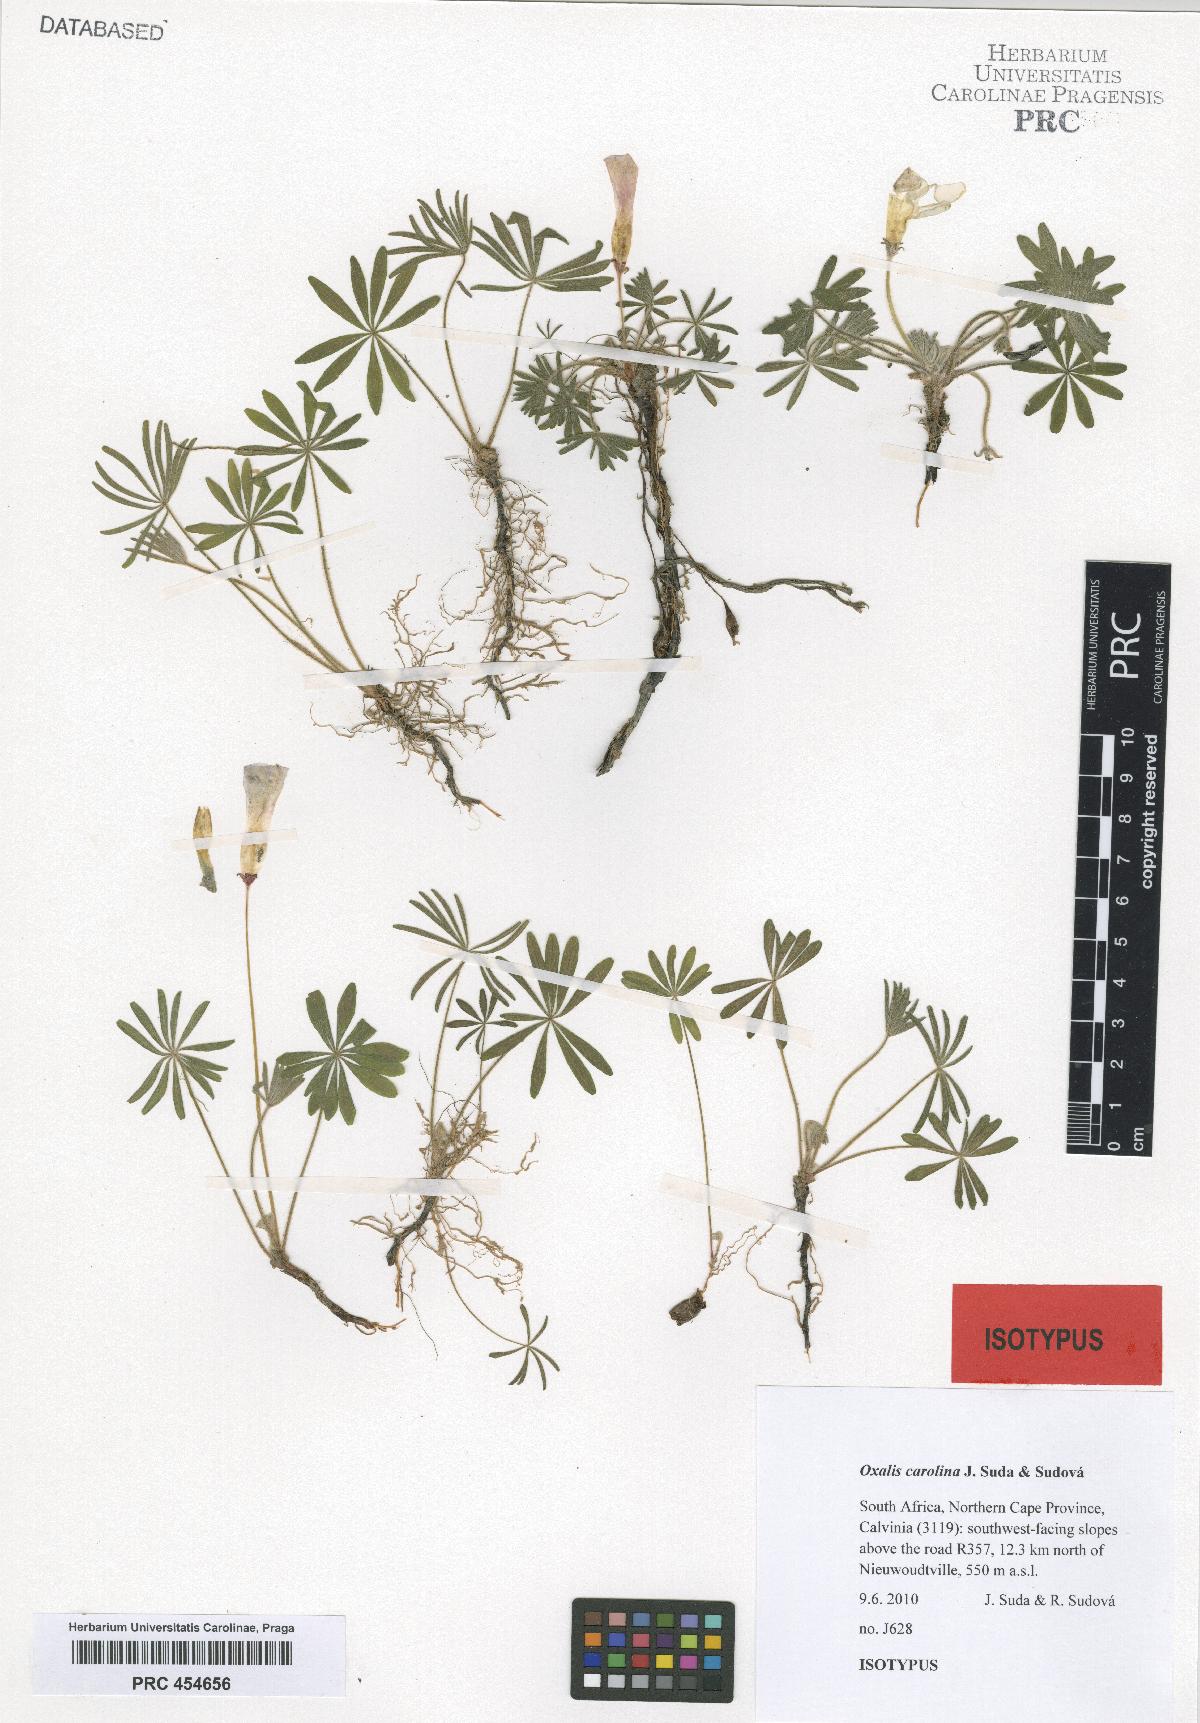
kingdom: Plantae
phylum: Tracheophyta
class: Magnoliopsida
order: Oxalidales
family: Oxalidaceae
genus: Oxalis
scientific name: Oxalis carolina
